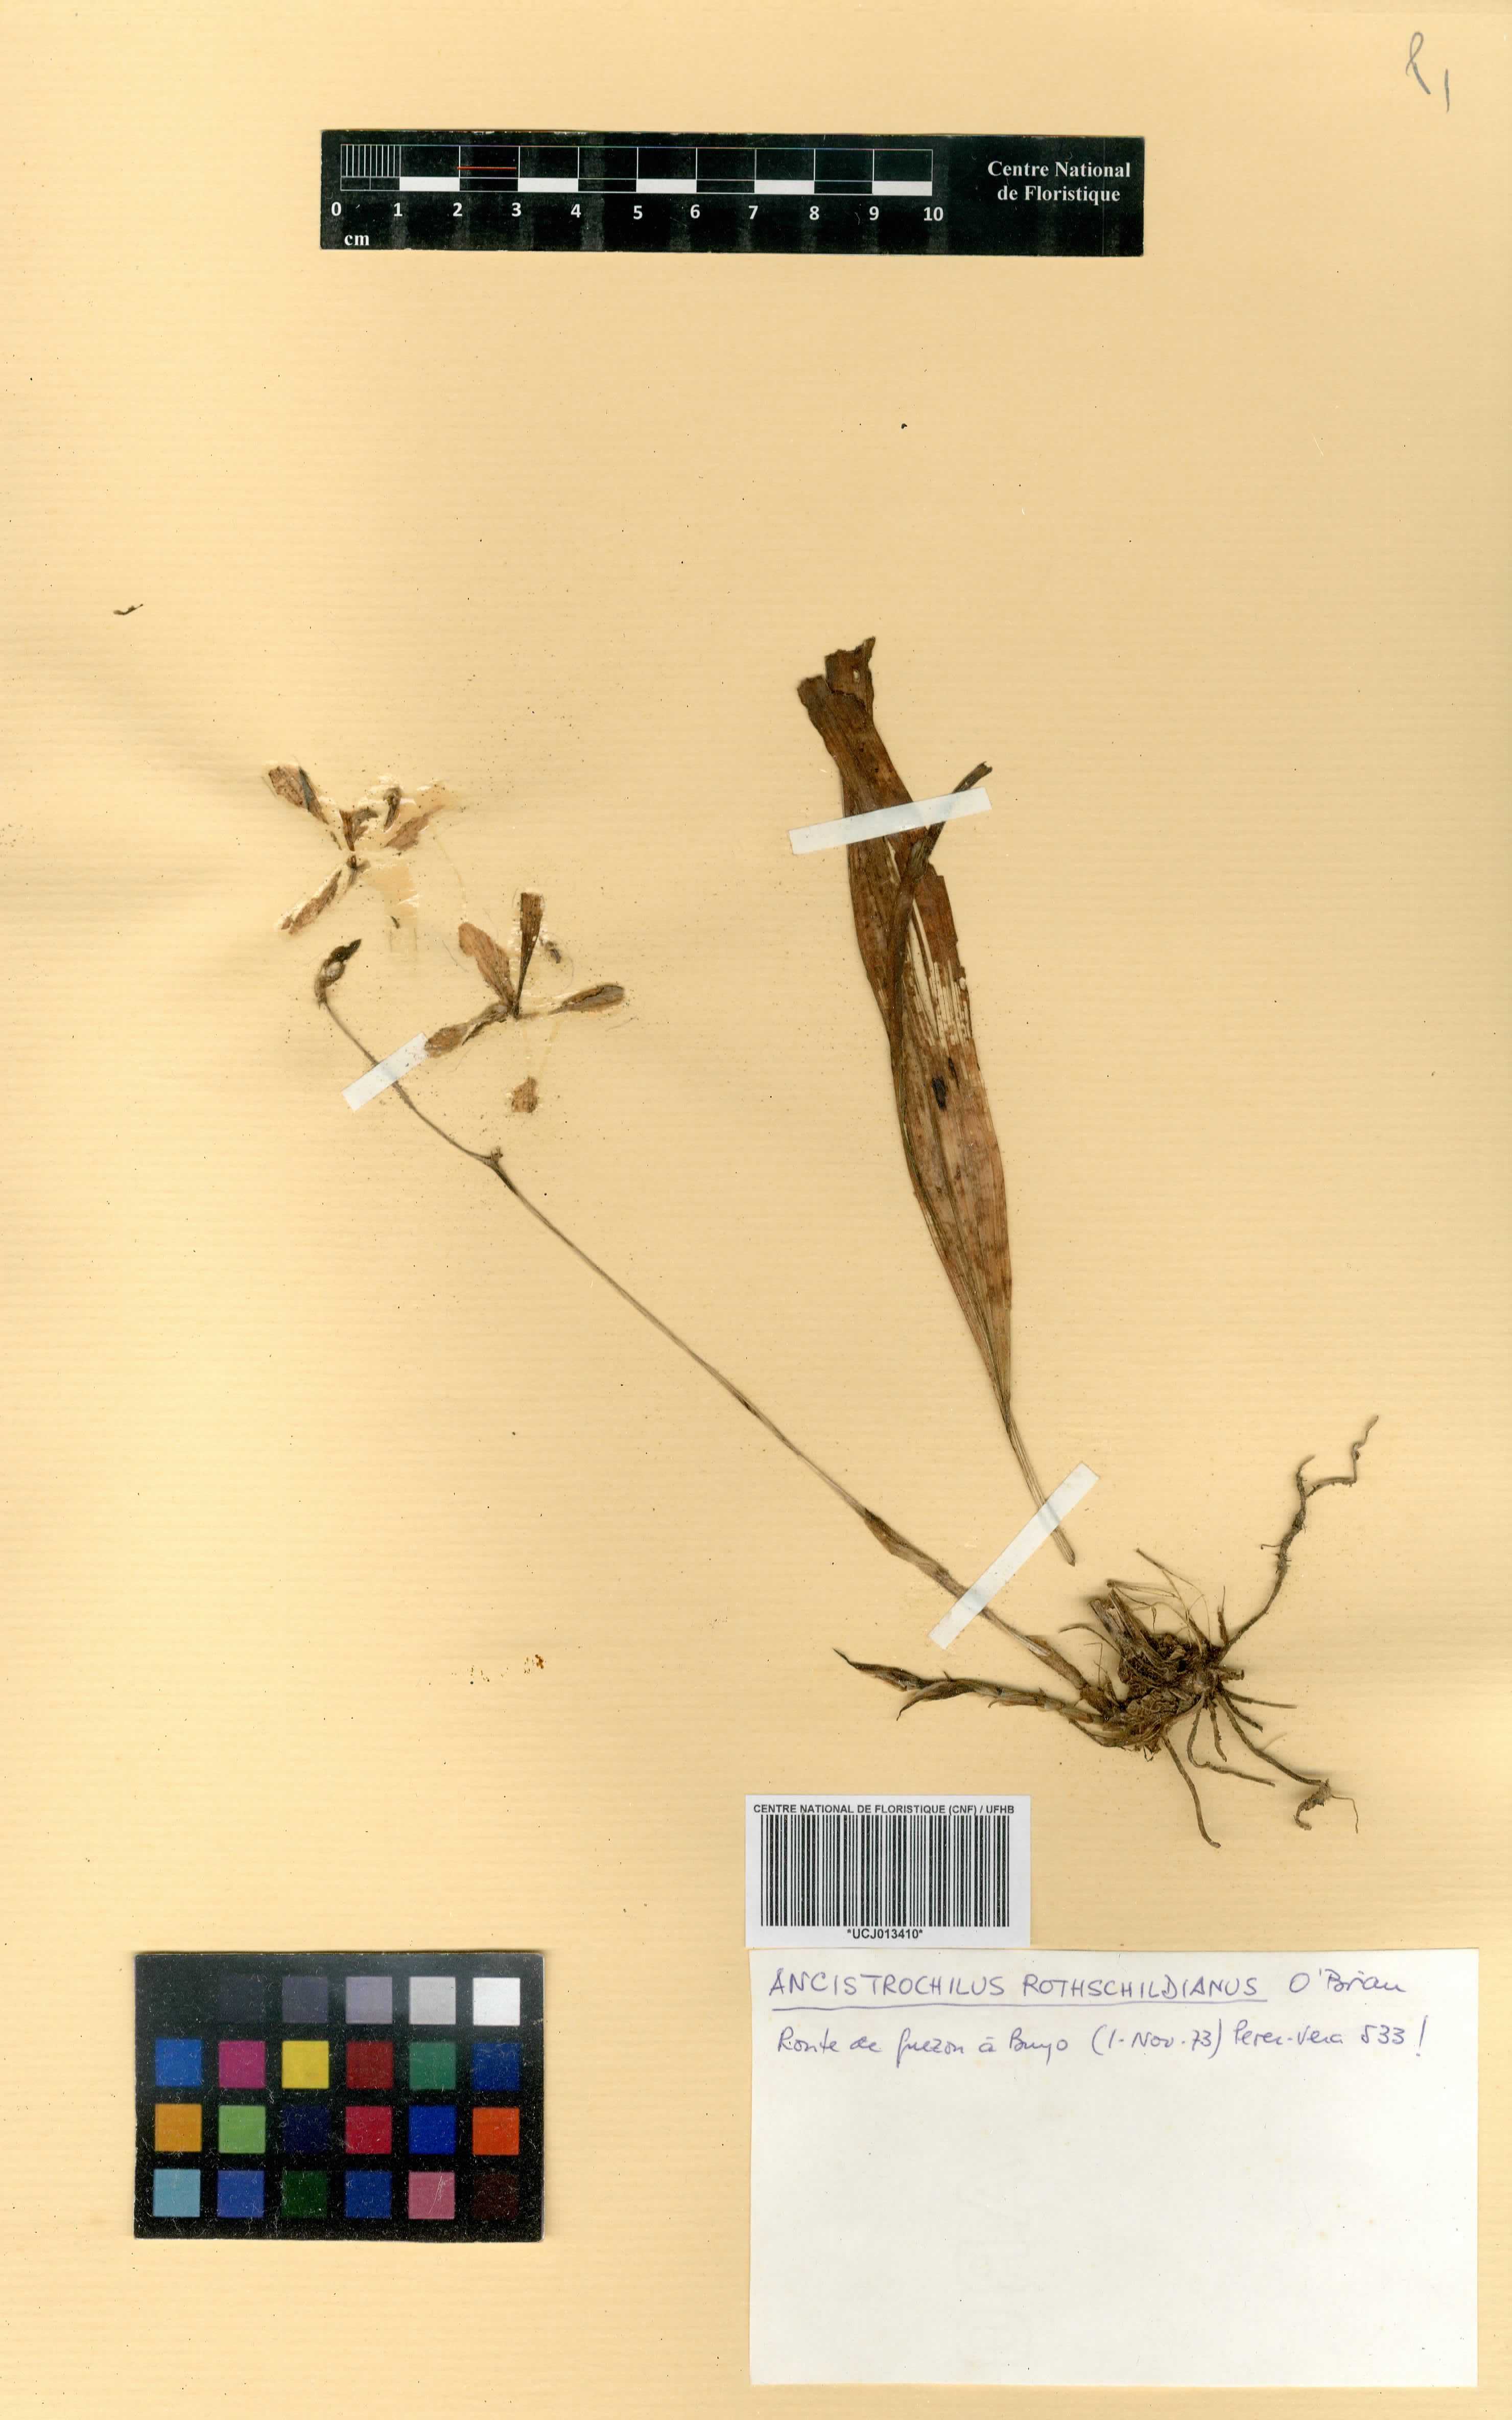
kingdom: Plantae
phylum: Tracheophyta
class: Liliopsida
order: Asparagales
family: Orchidaceae
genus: Ancistrochilus
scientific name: Ancistrochilus rothschildianus
